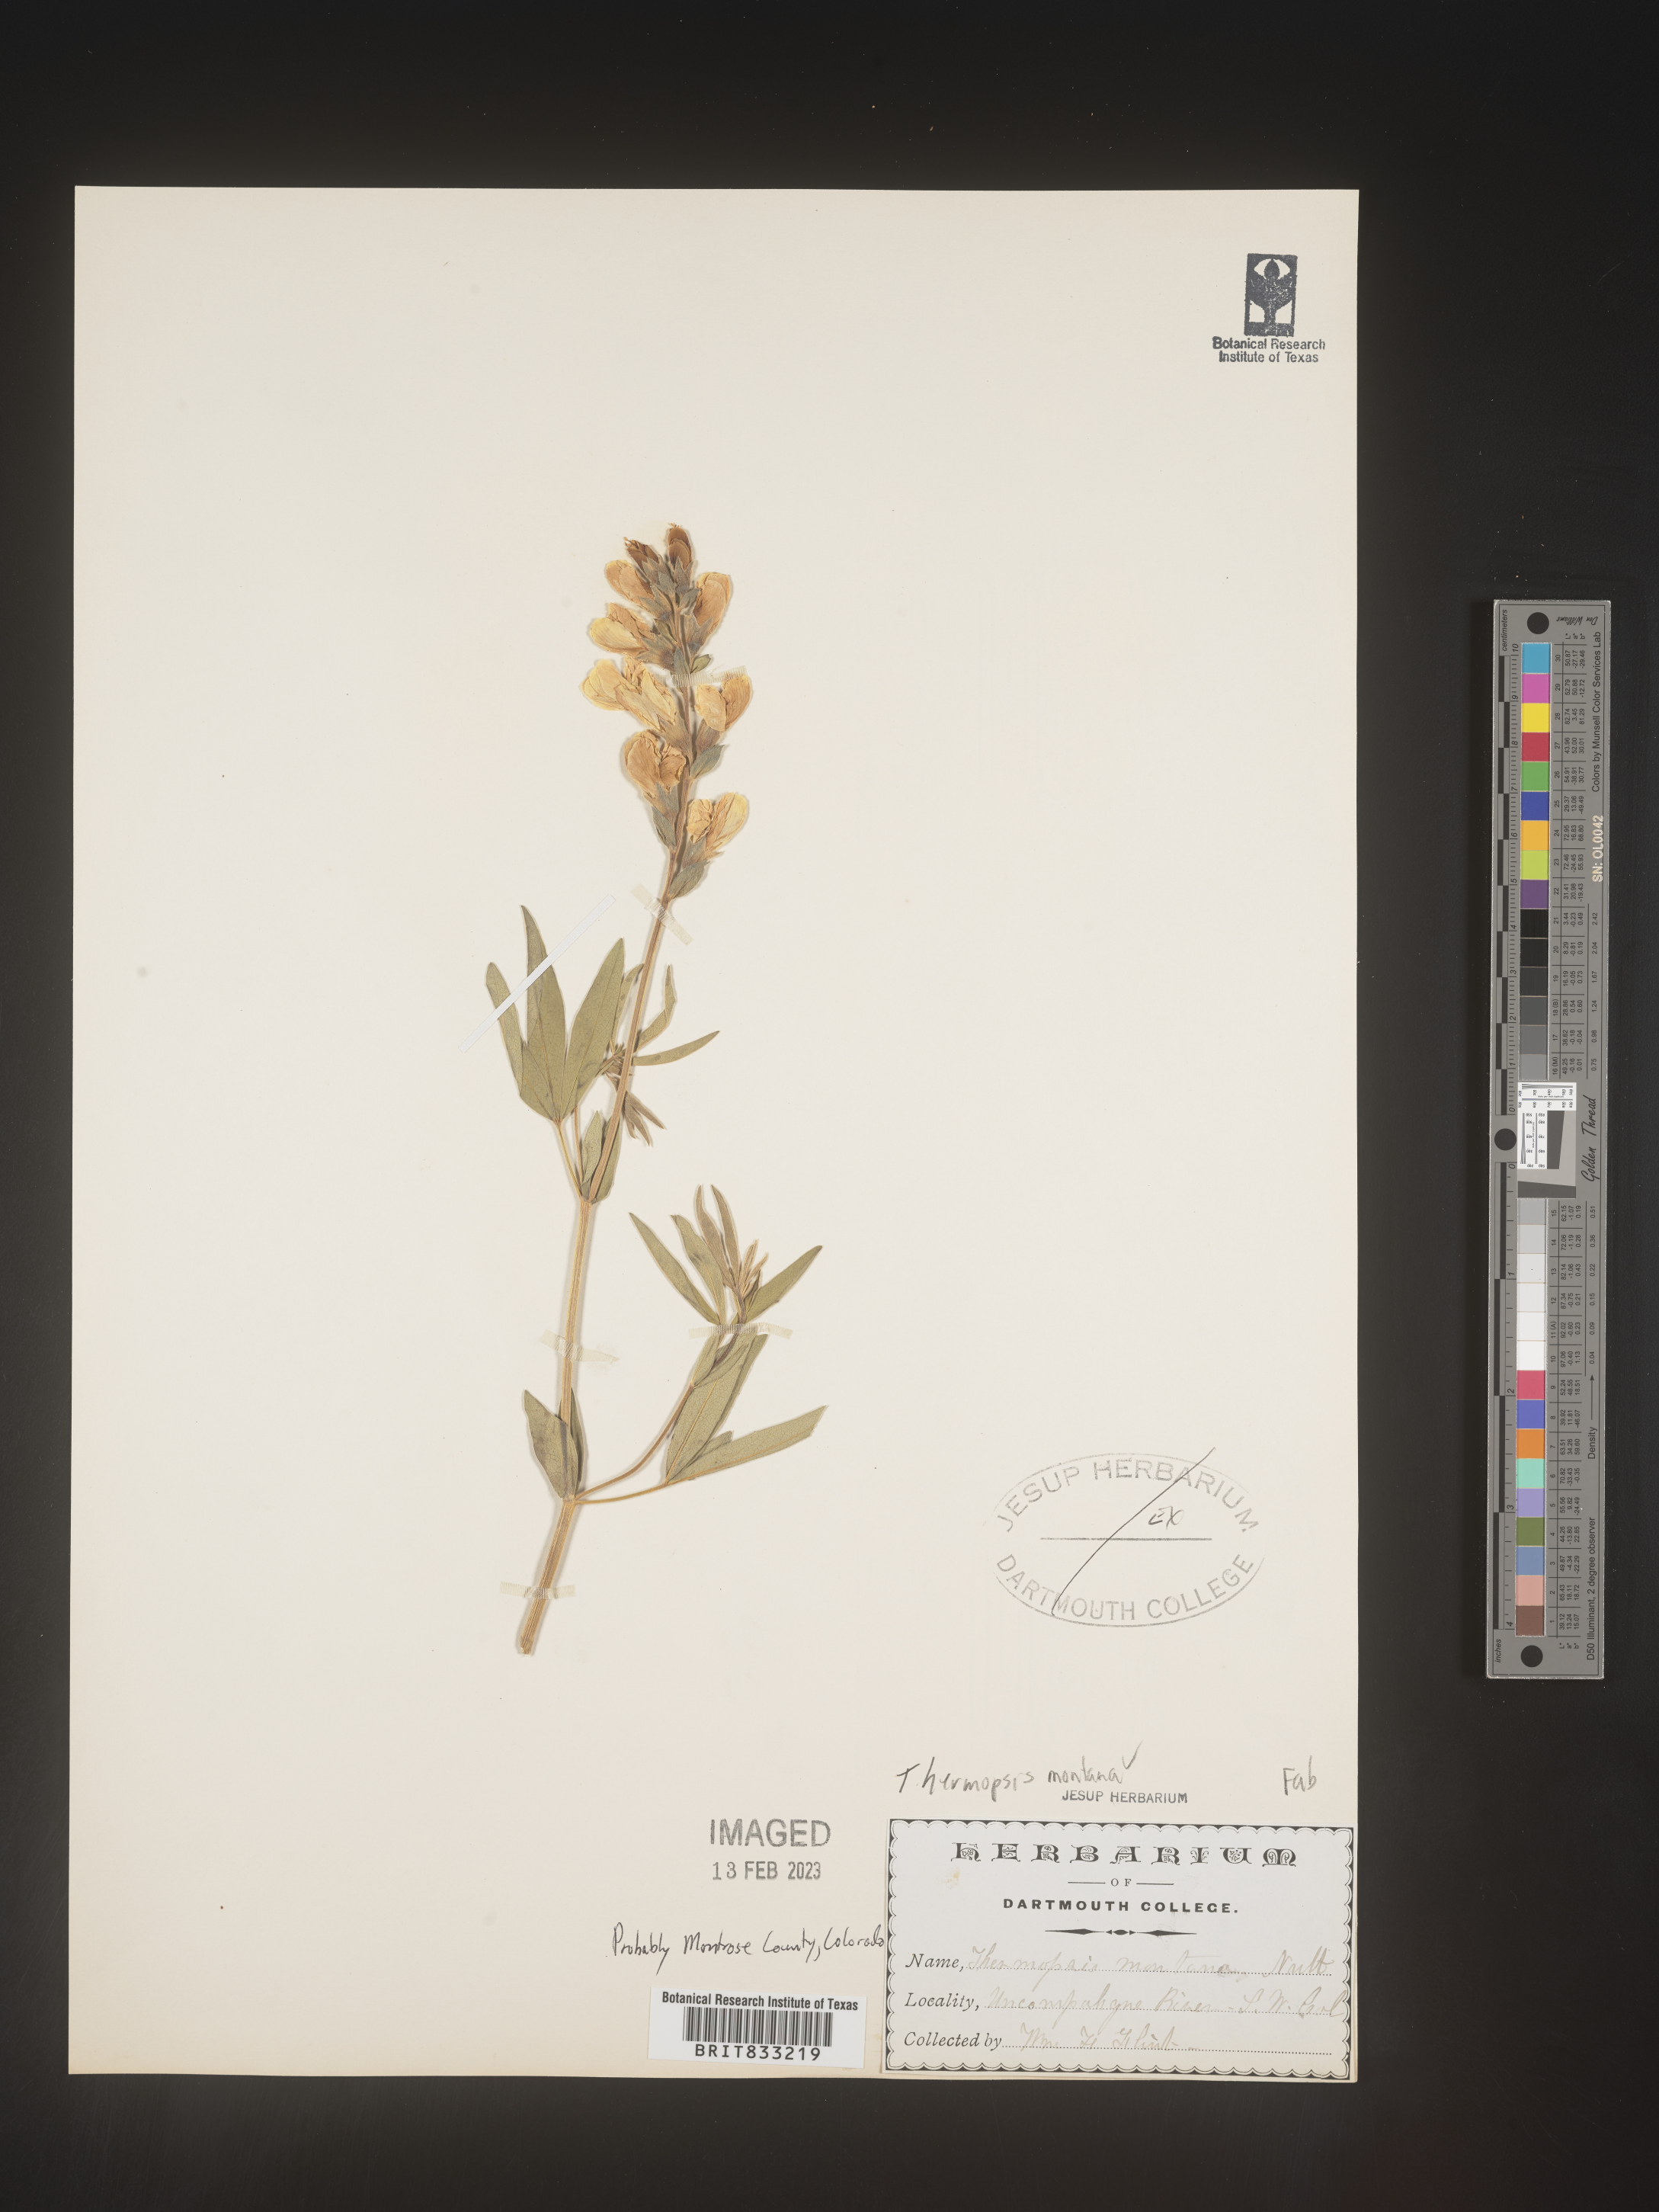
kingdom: Plantae
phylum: Tracheophyta
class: Magnoliopsida
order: Fabales
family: Fabaceae
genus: Thermopsis
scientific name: Thermopsis montana
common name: False lupin
